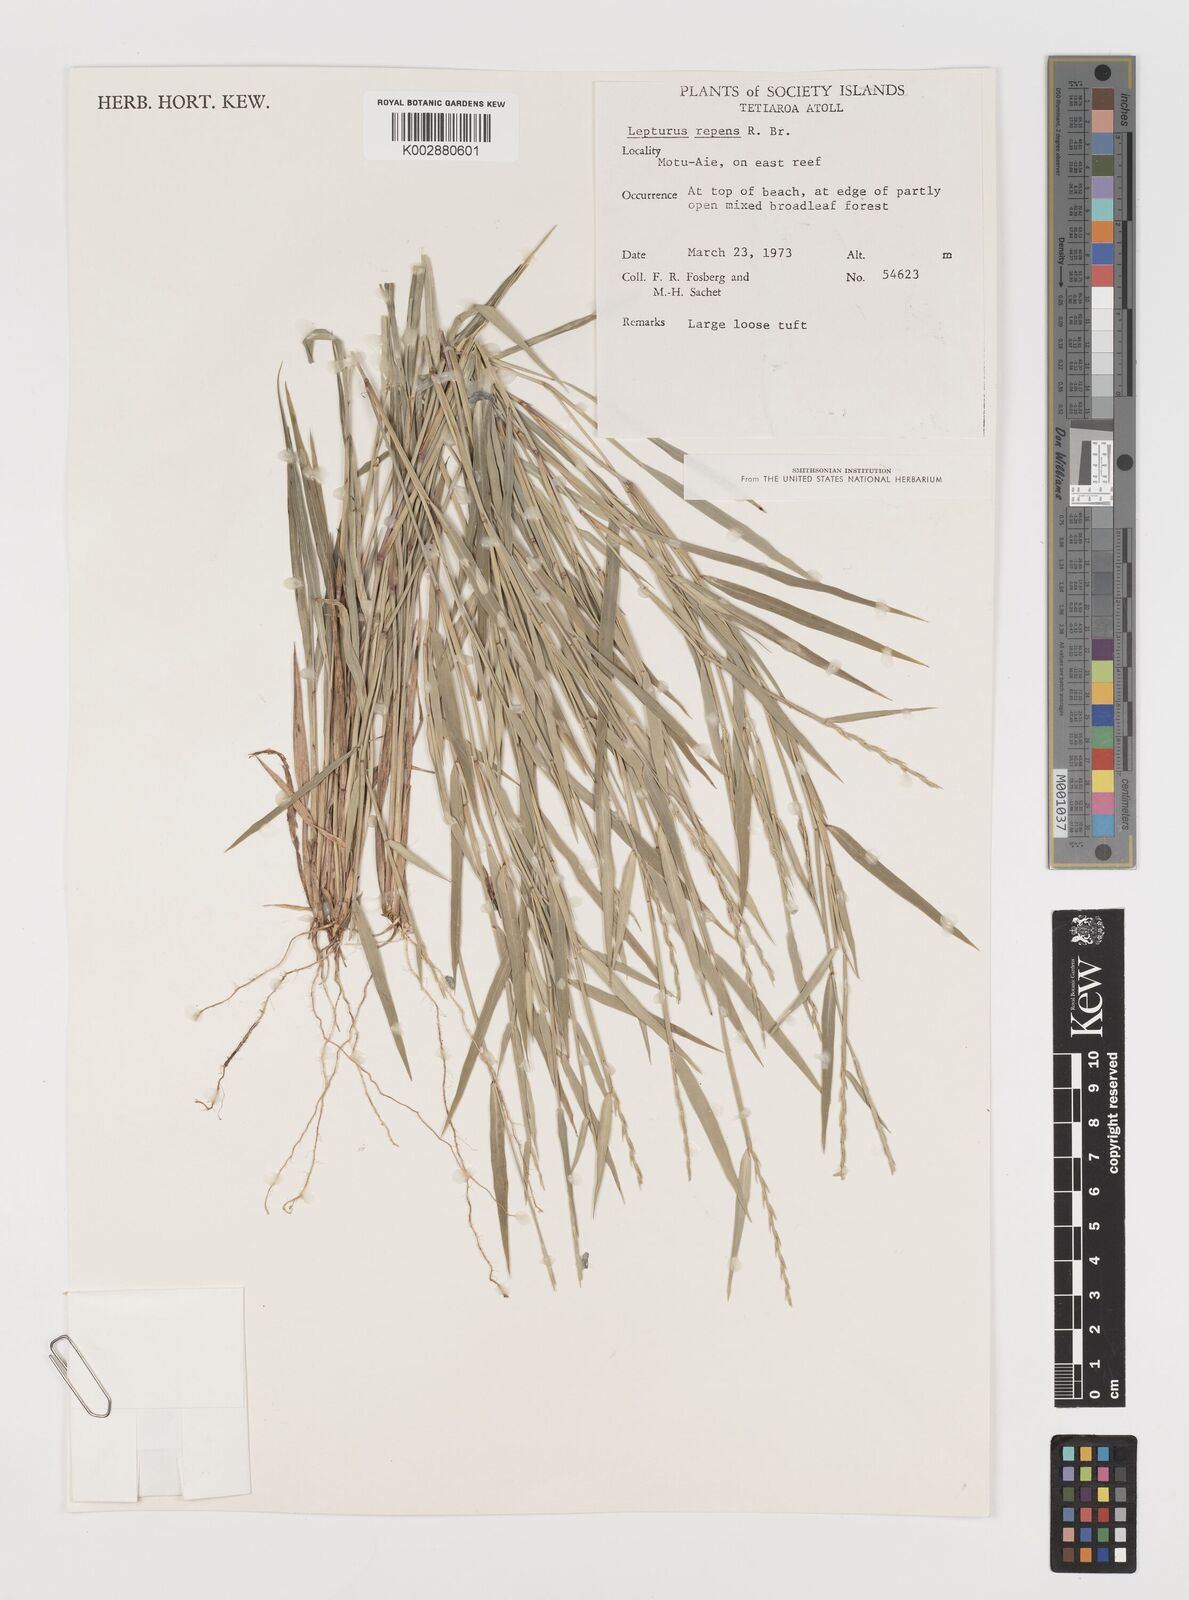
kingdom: Plantae
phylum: Tracheophyta
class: Liliopsida
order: Poales
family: Poaceae
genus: Lepturus
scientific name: Lepturus repens
